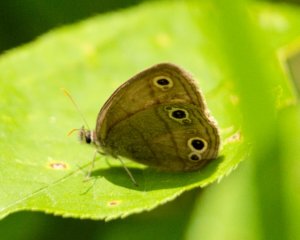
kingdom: Animalia
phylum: Arthropoda
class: Insecta
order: Lepidoptera
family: Nymphalidae
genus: Euptychia
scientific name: Euptychia cymela
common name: Little Wood Satyr
